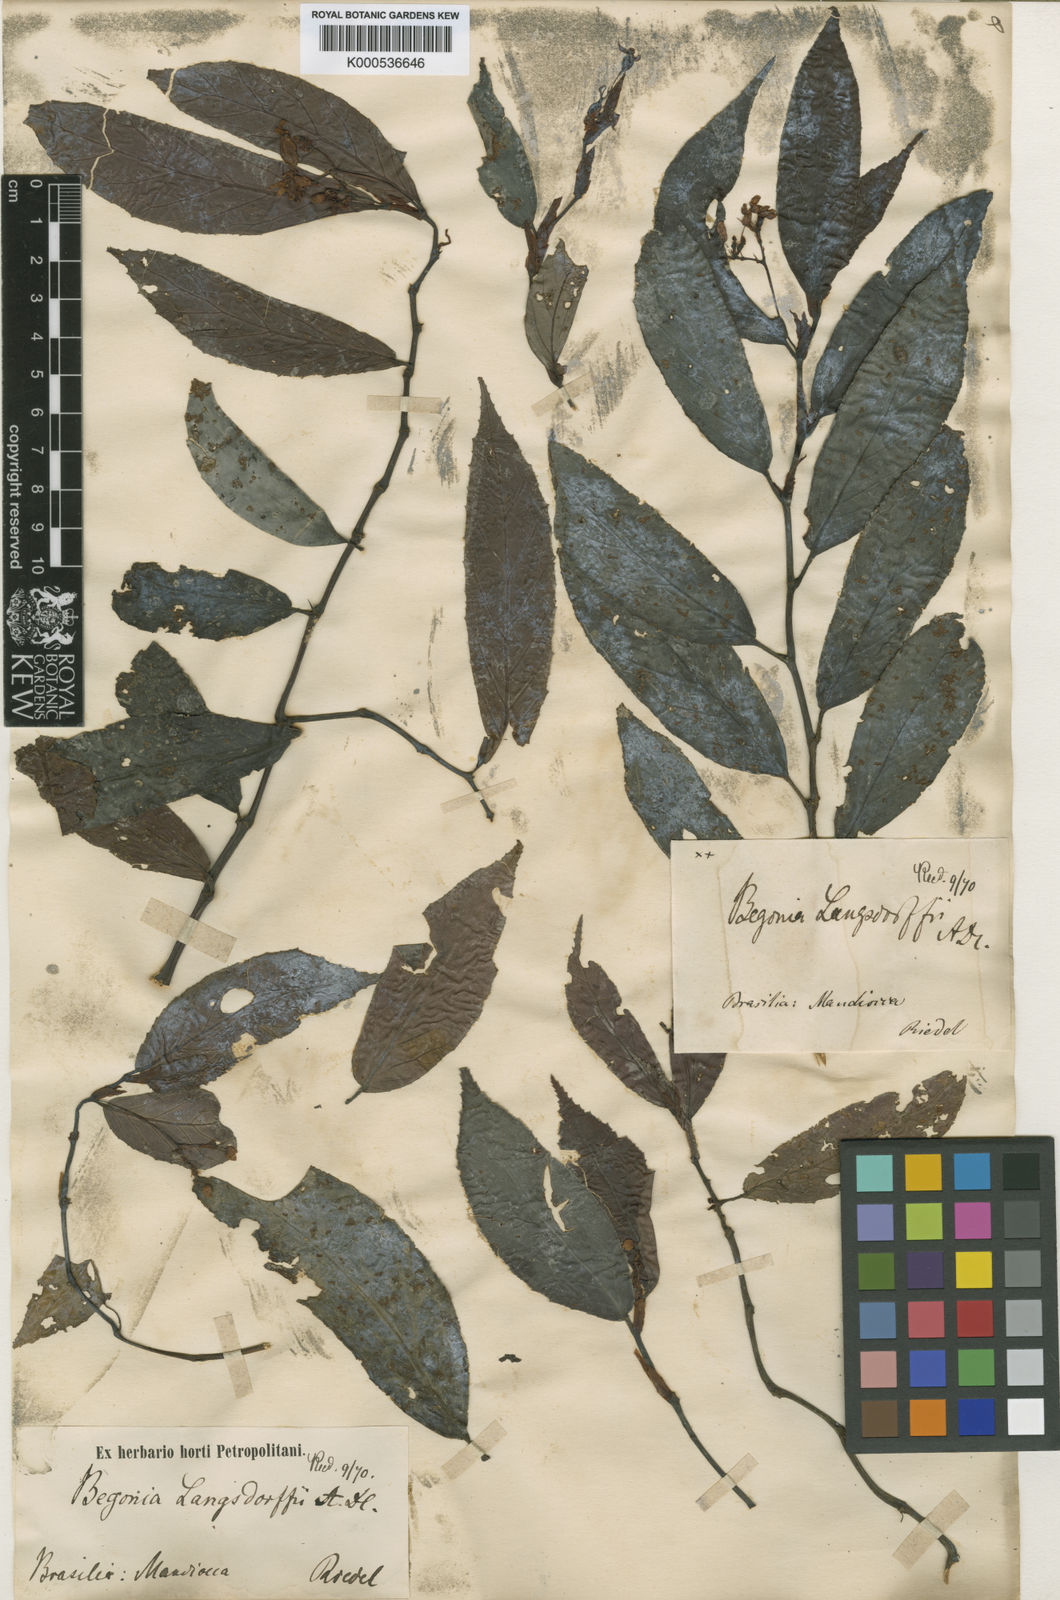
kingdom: Plantae
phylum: Tracheophyta
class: Magnoliopsida
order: Cucurbitales
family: Begoniaceae
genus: Begonia
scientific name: Begonia bidentata
